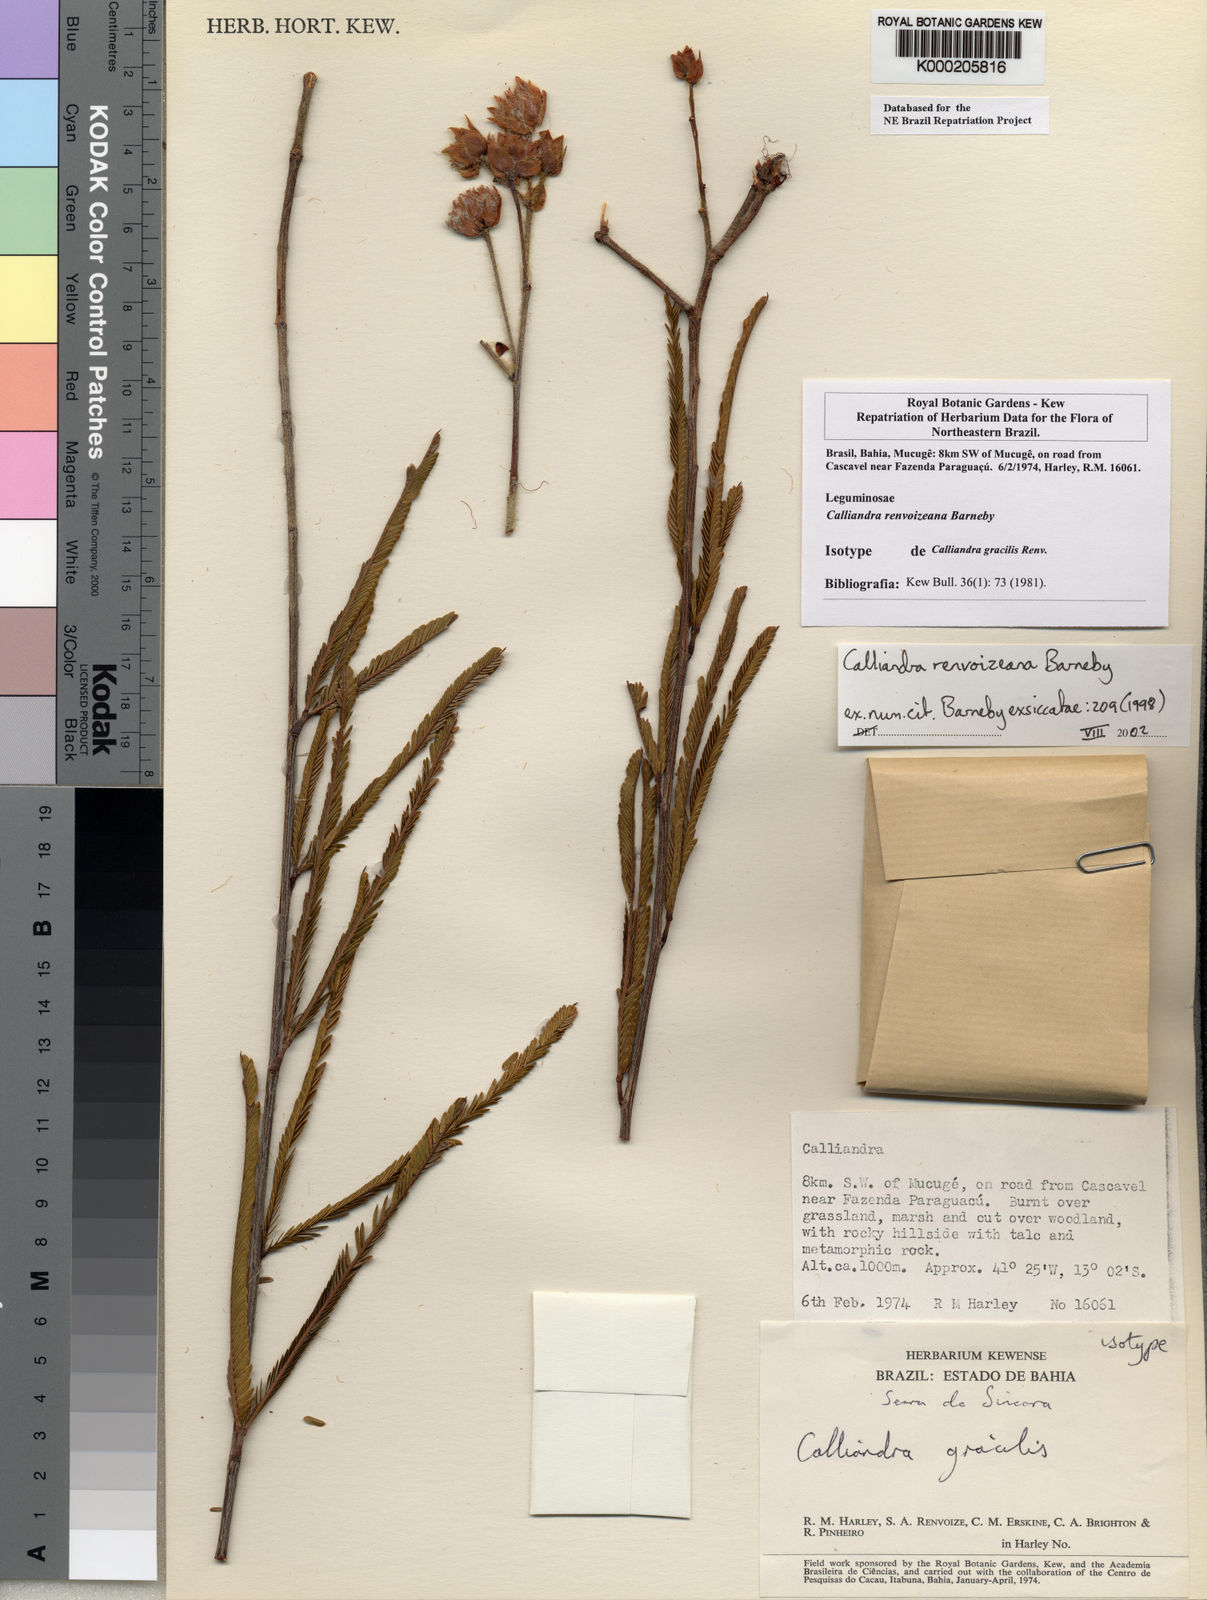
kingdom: Plantae
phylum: Tracheophyta
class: Magnoliopsida
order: Fabales
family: Fabaceae
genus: Calliandra
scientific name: Calliandra renvoizeana
